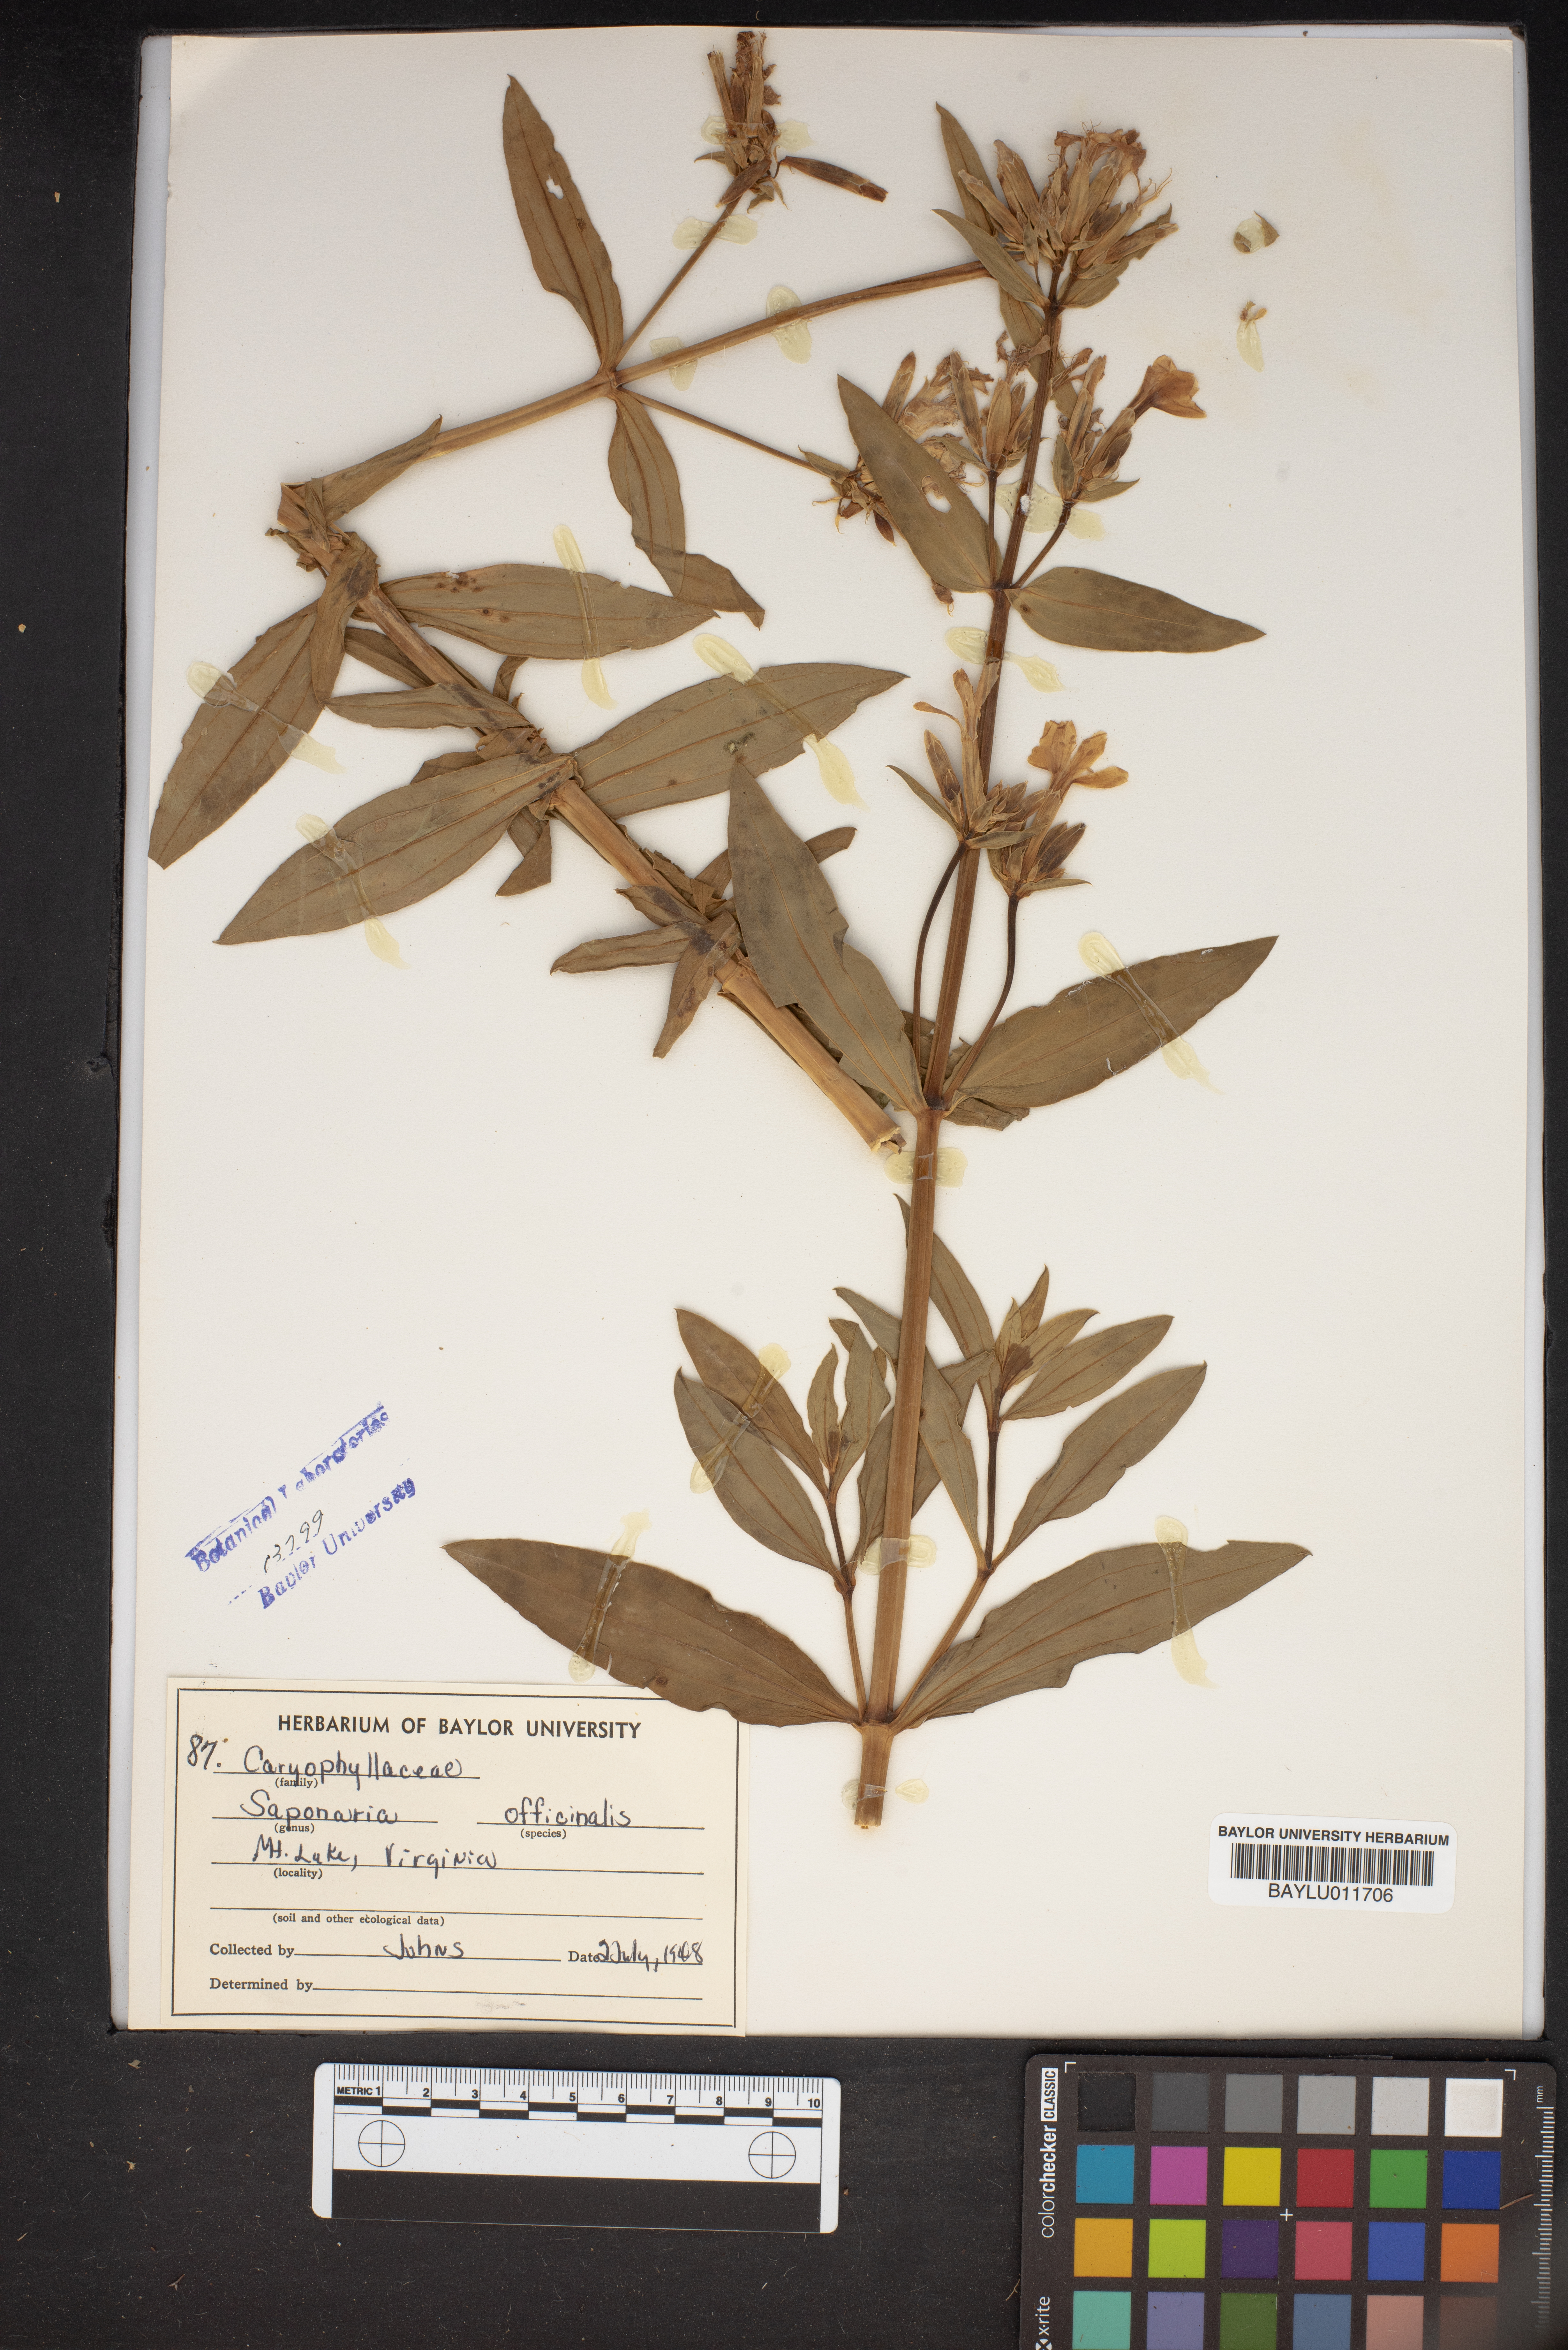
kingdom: Plantae
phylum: Tracheophyta
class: Magnoliopsida
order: Caryophyllales
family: Caryophyllaceae
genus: Saponaria
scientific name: Saponaria officinalis
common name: Soapwort
